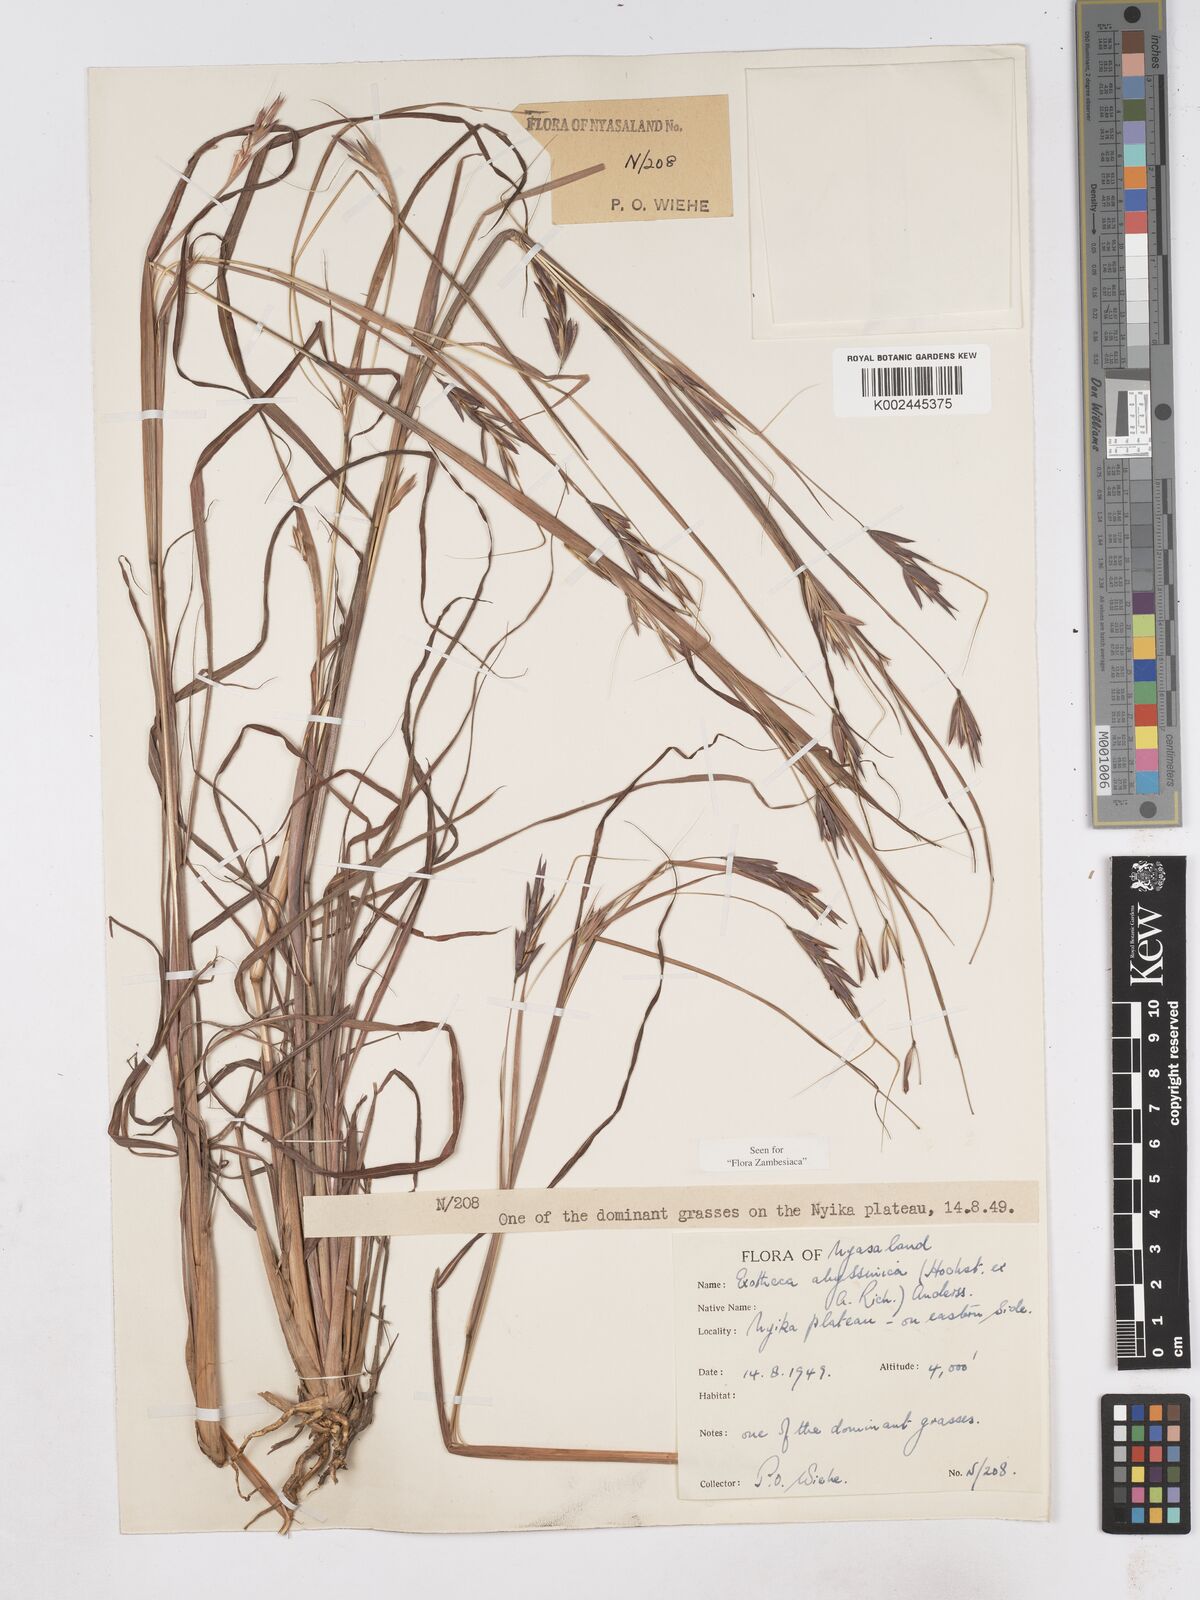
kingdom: Plantae
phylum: Tracheophyta
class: Liliopsida
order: Poales
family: Poaceae
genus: Exotheca
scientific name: Exotheca abyssinica
